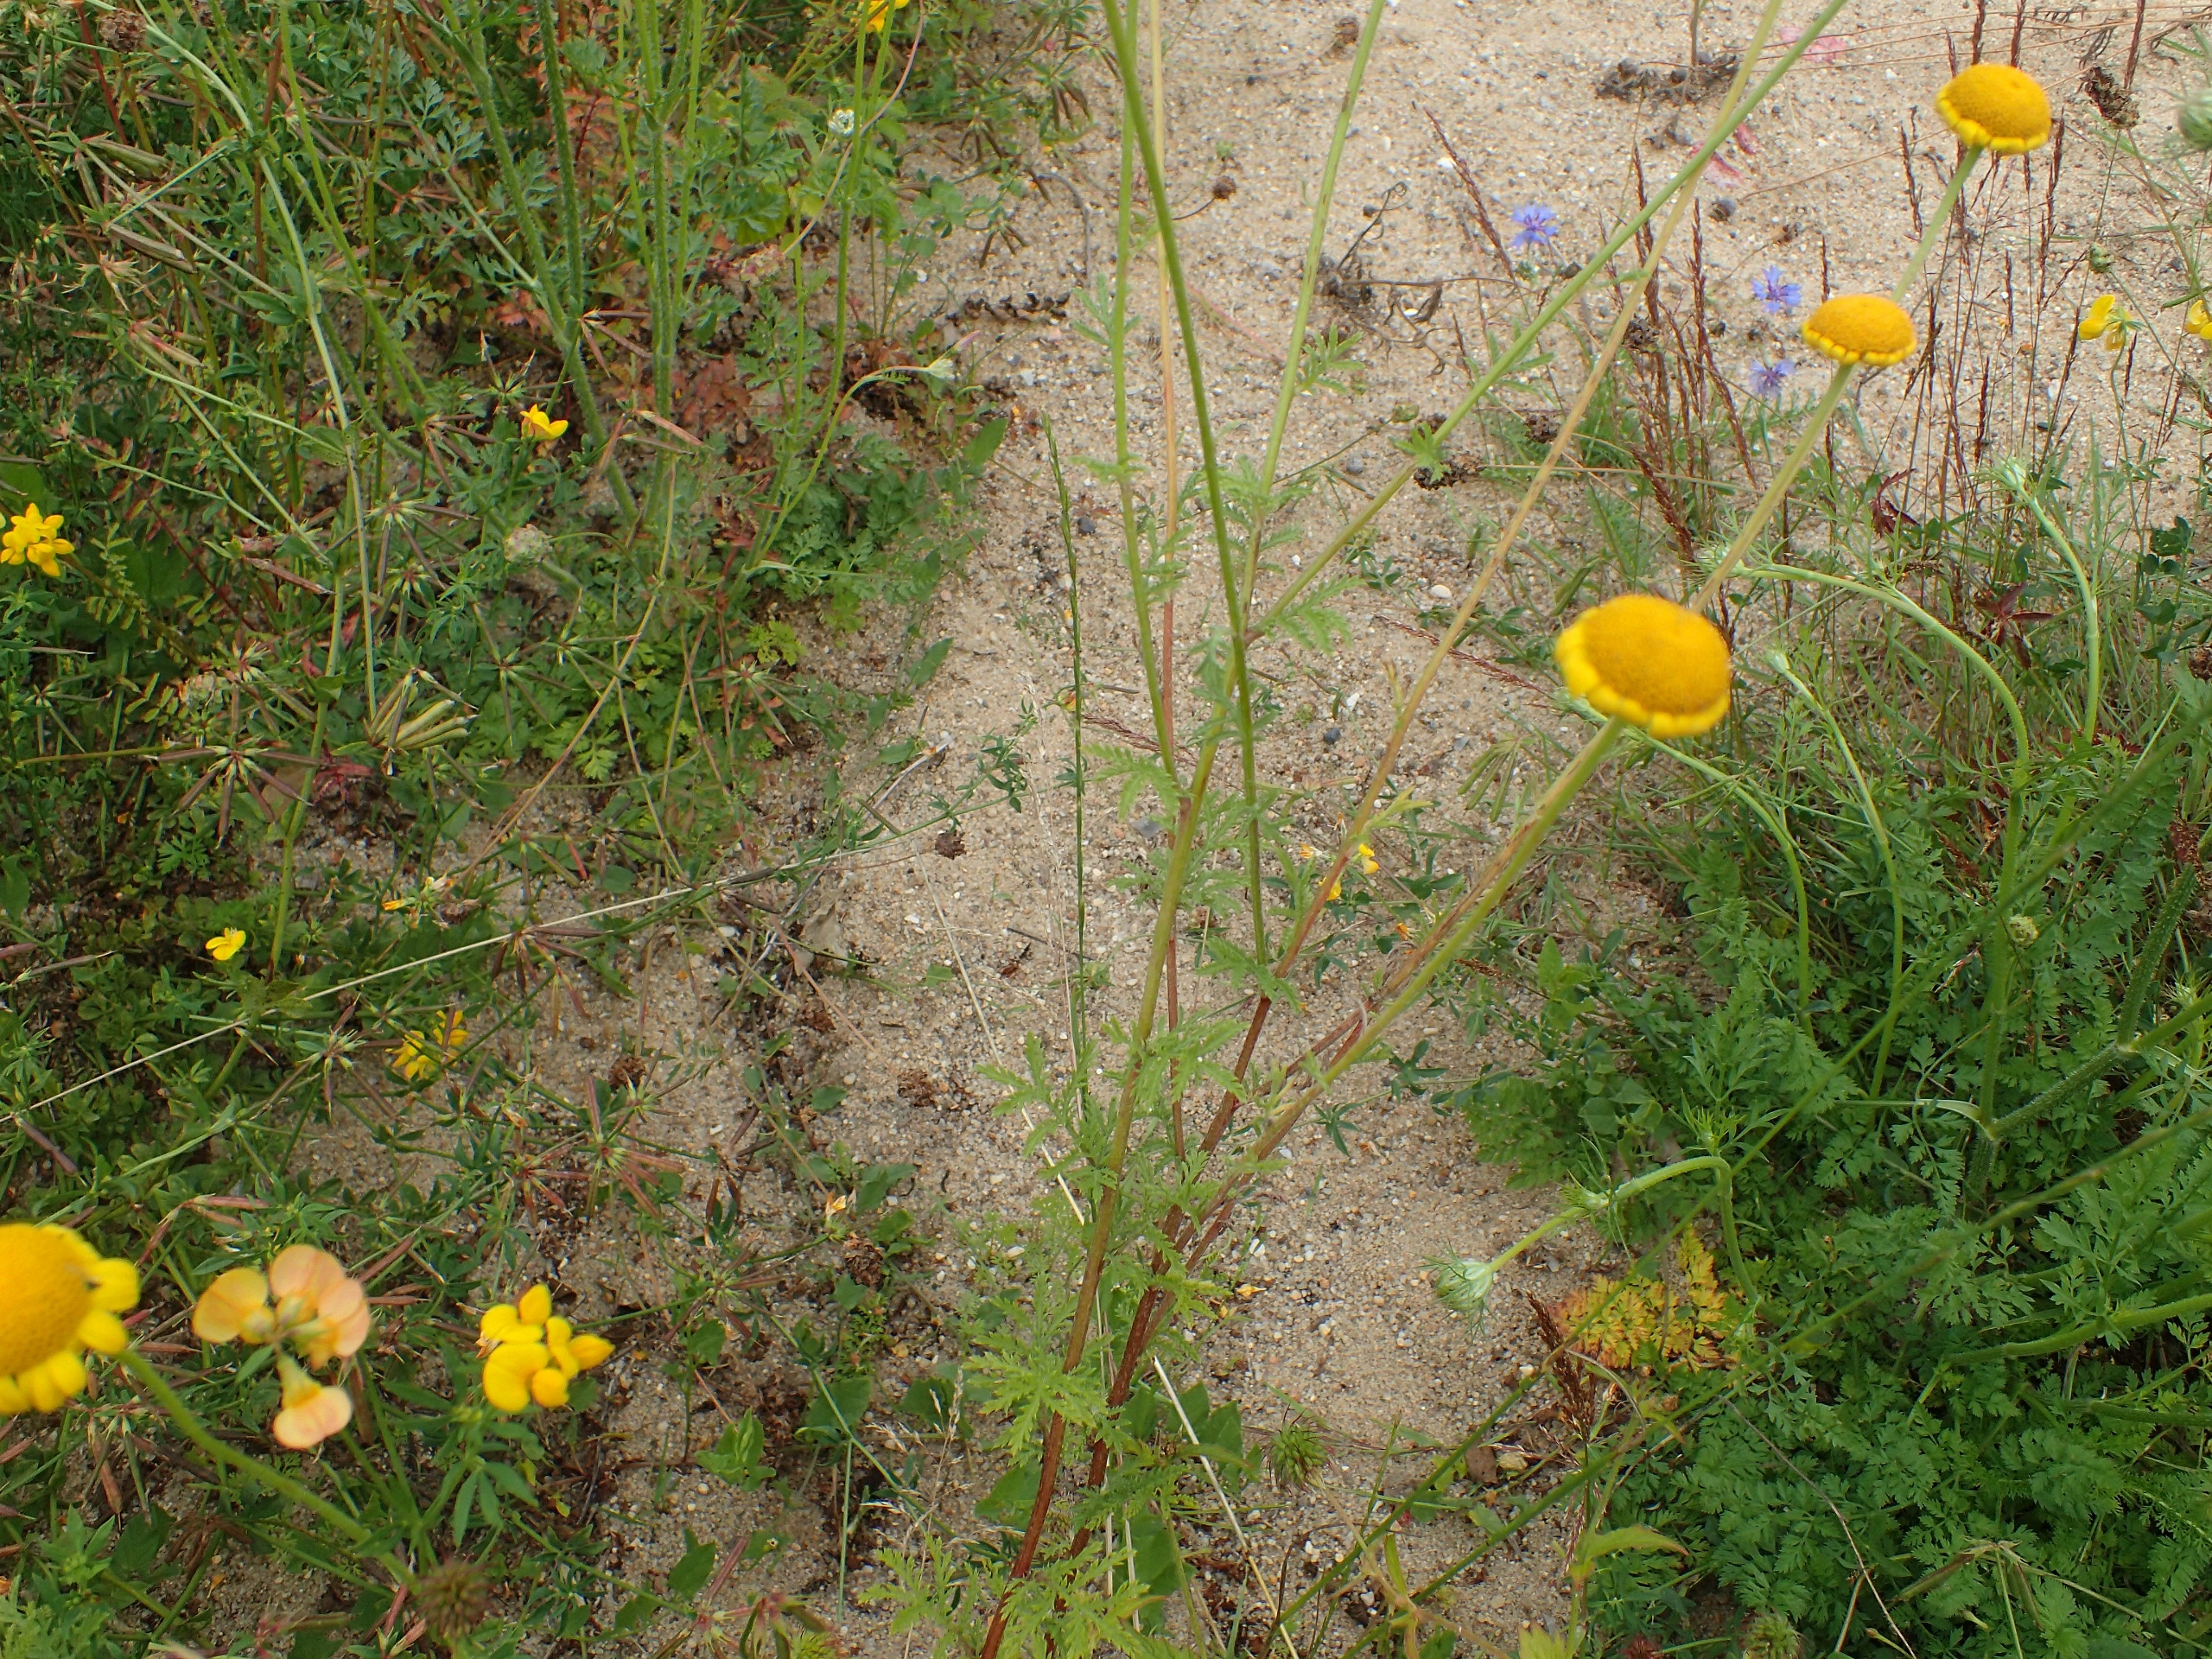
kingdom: Plantae
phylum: Tracheophyta
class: Magnoliopsida
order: Asterales
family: Asteraceae
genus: Cota
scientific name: Cota tinctoria
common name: Farve-gåseurt
